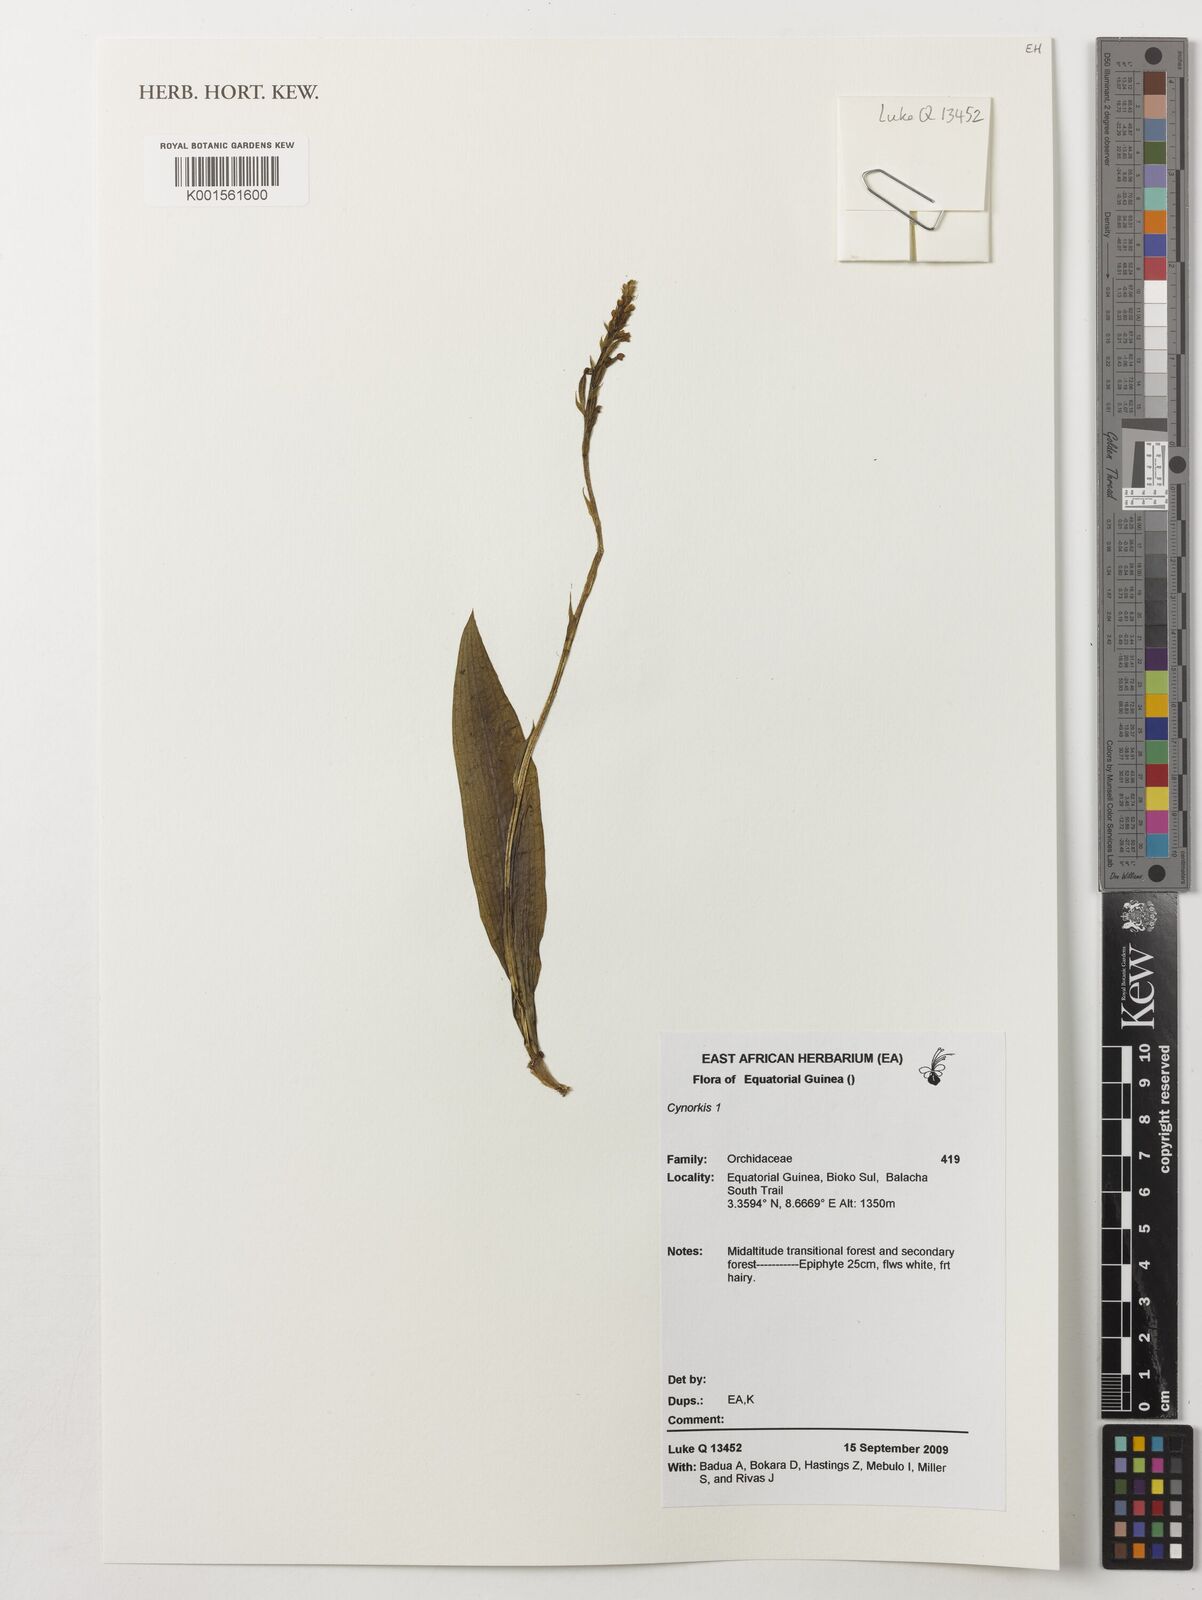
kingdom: Plantae
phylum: Tracheophyta
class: Liliopsida
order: Asparagales
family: Orchidaceae
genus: Cynorkis
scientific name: Cynorkis
